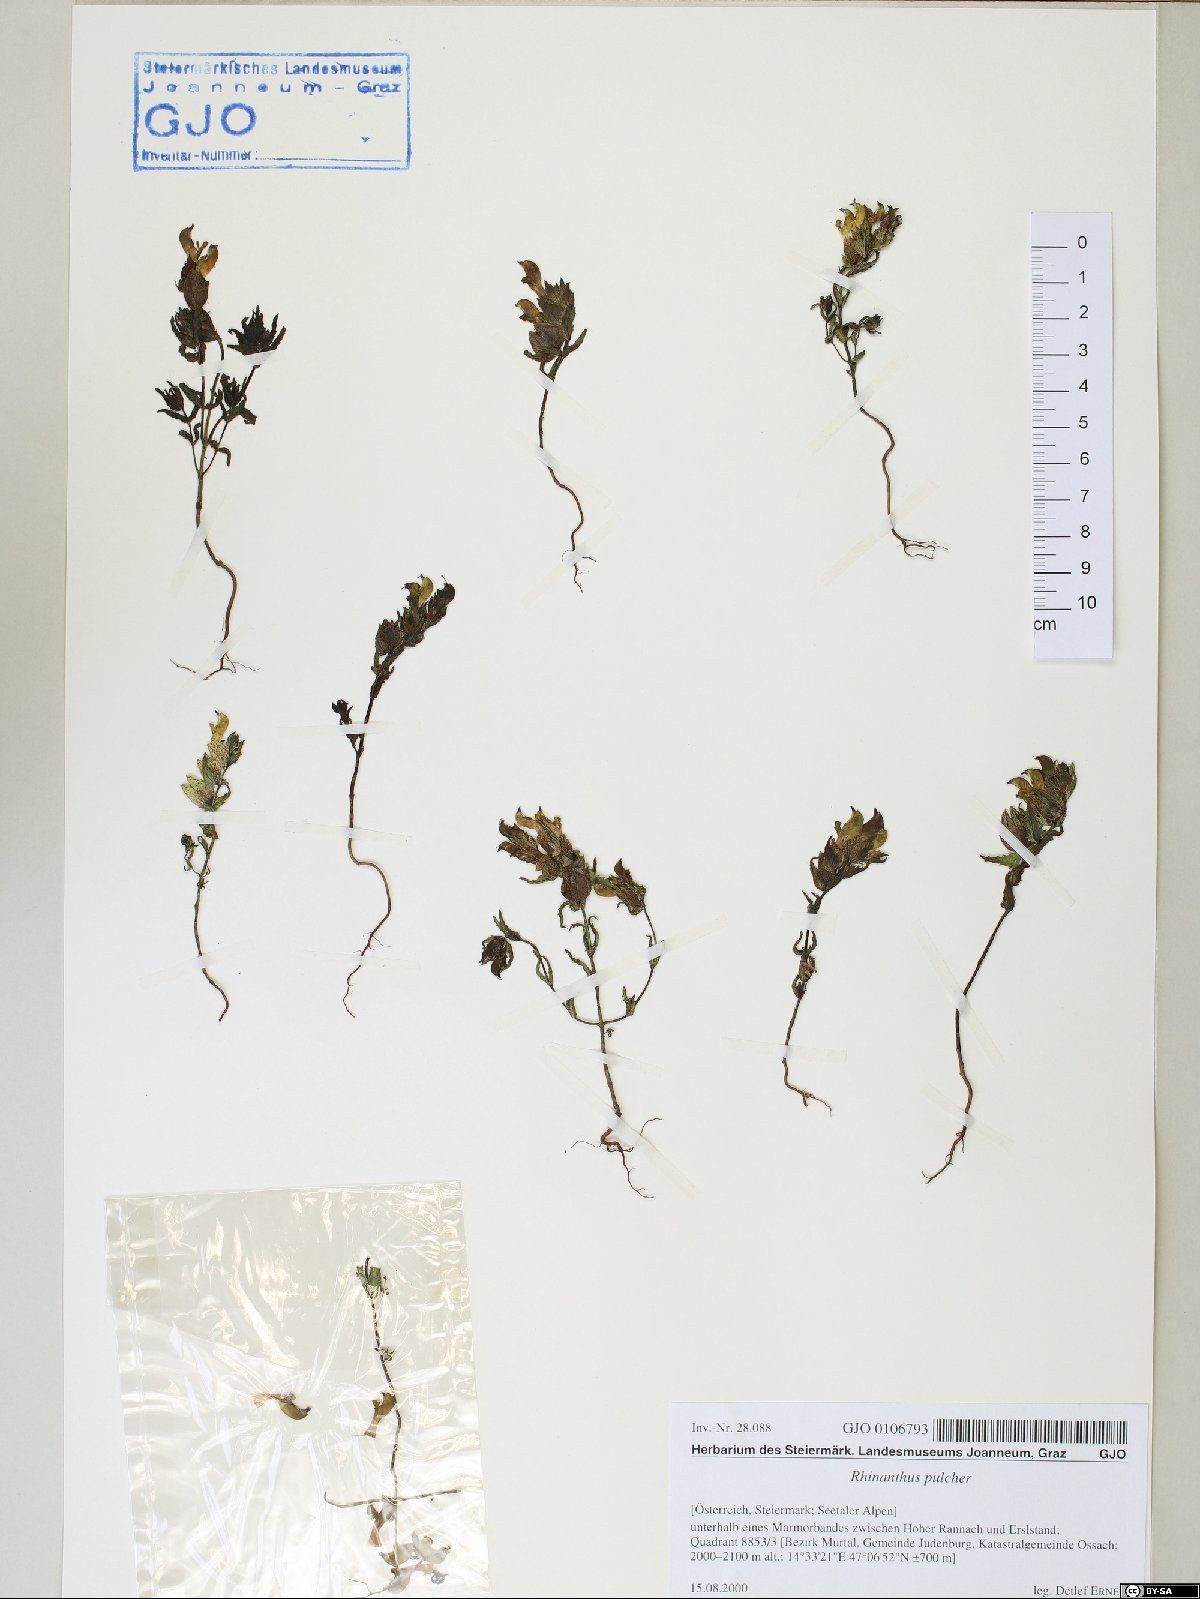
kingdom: Plantae
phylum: Tracheophyta
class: Magnoliopsida
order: Lamiales
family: Orobanchaceae
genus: Rhinanthus
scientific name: Rhinanthus riphaeus
